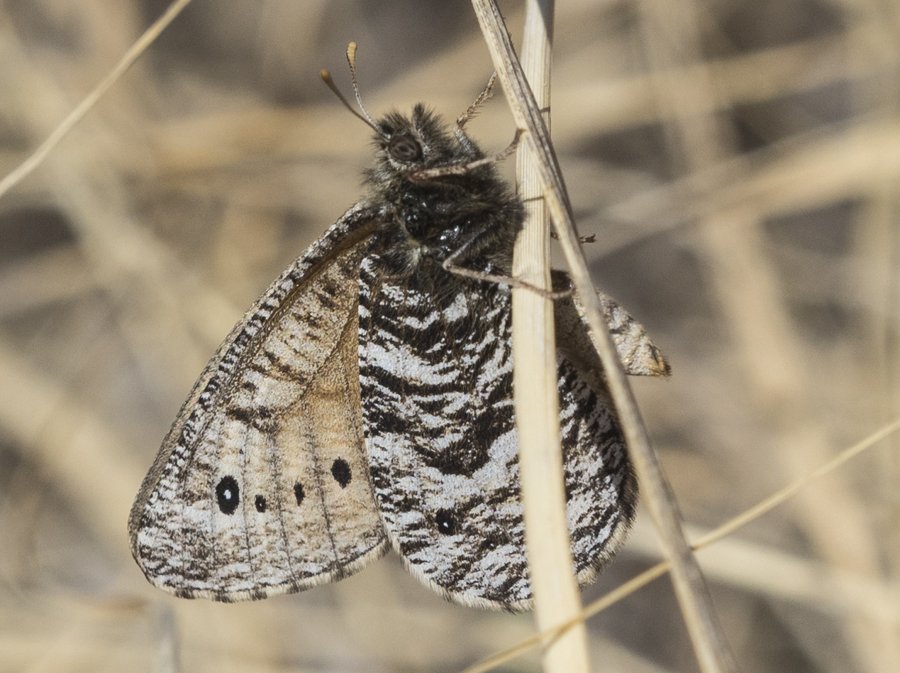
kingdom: Animalia
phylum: Arthropoda
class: Insecta
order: Lepidoptera
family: Nymphalidae
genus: Oeneis
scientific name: Oeneis uhleri
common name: Uhler's Arctic
